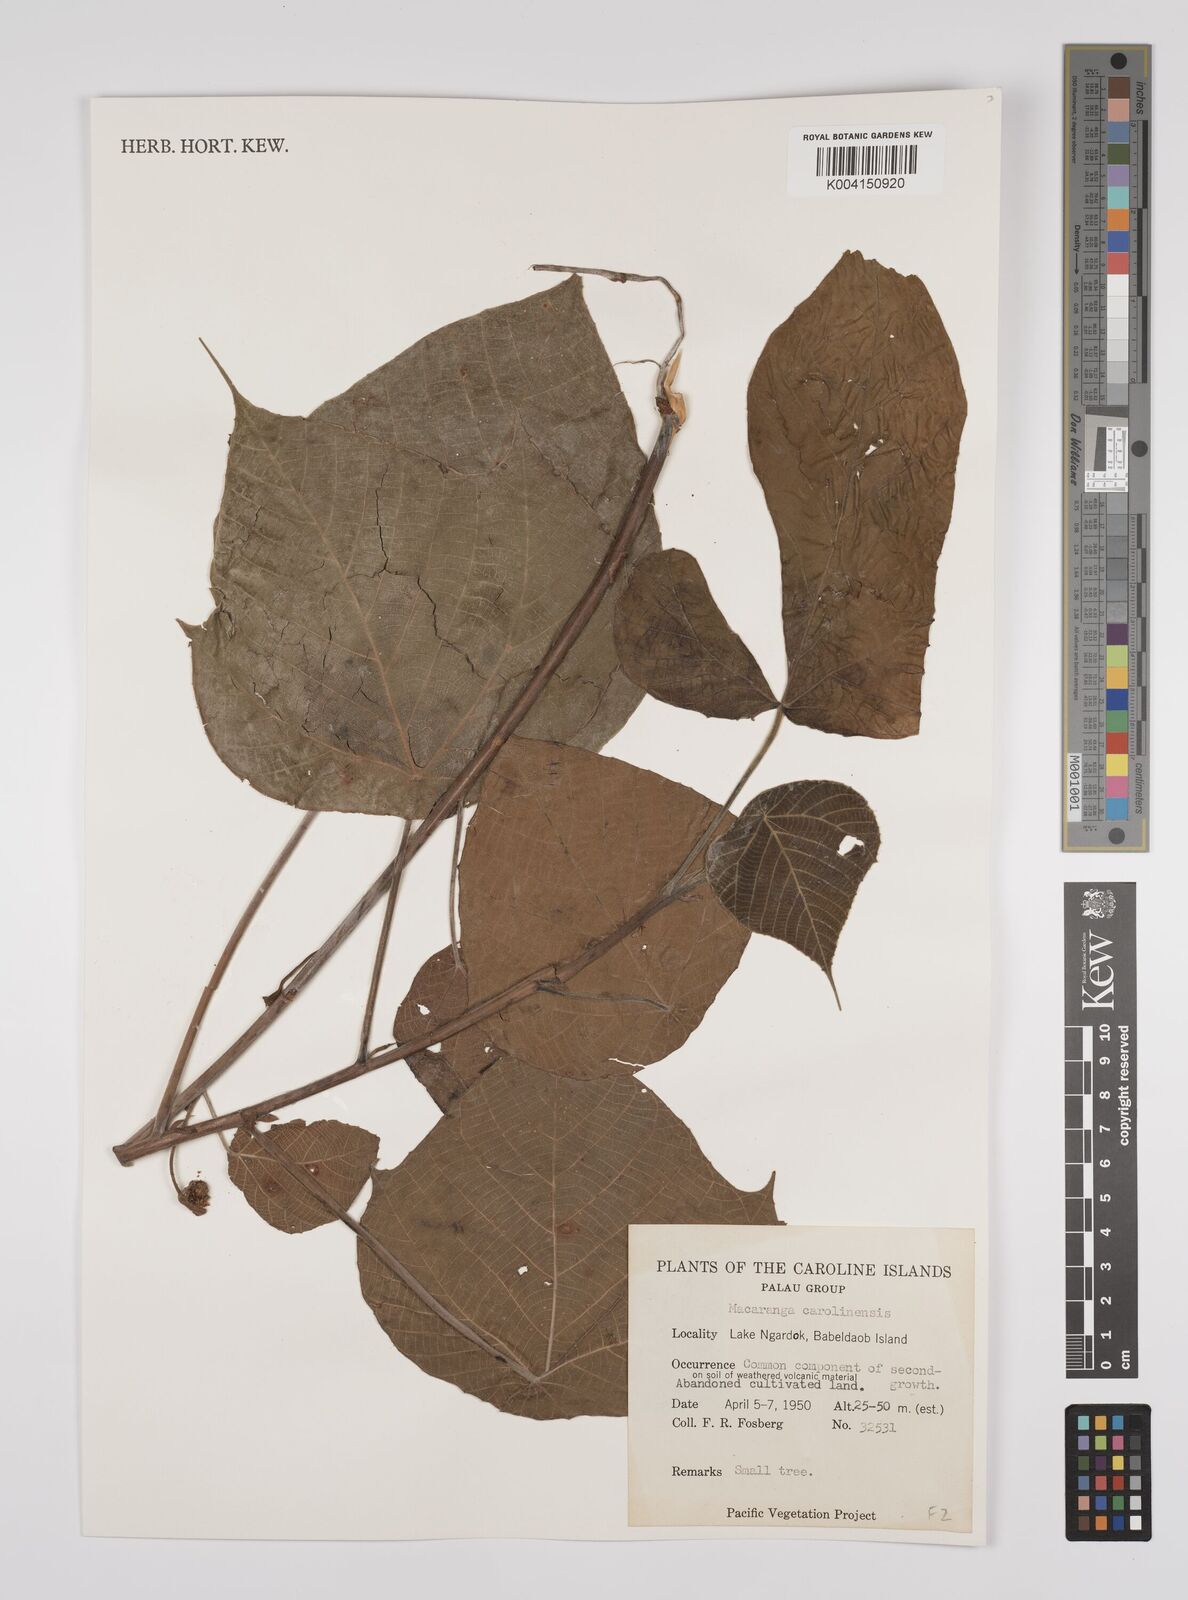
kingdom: Plantae
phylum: Tracheophyta
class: Magnoliopsida
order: Malpighiales
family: Euphorbiaceae
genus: Macaranga
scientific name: Macaranga carolinensis
